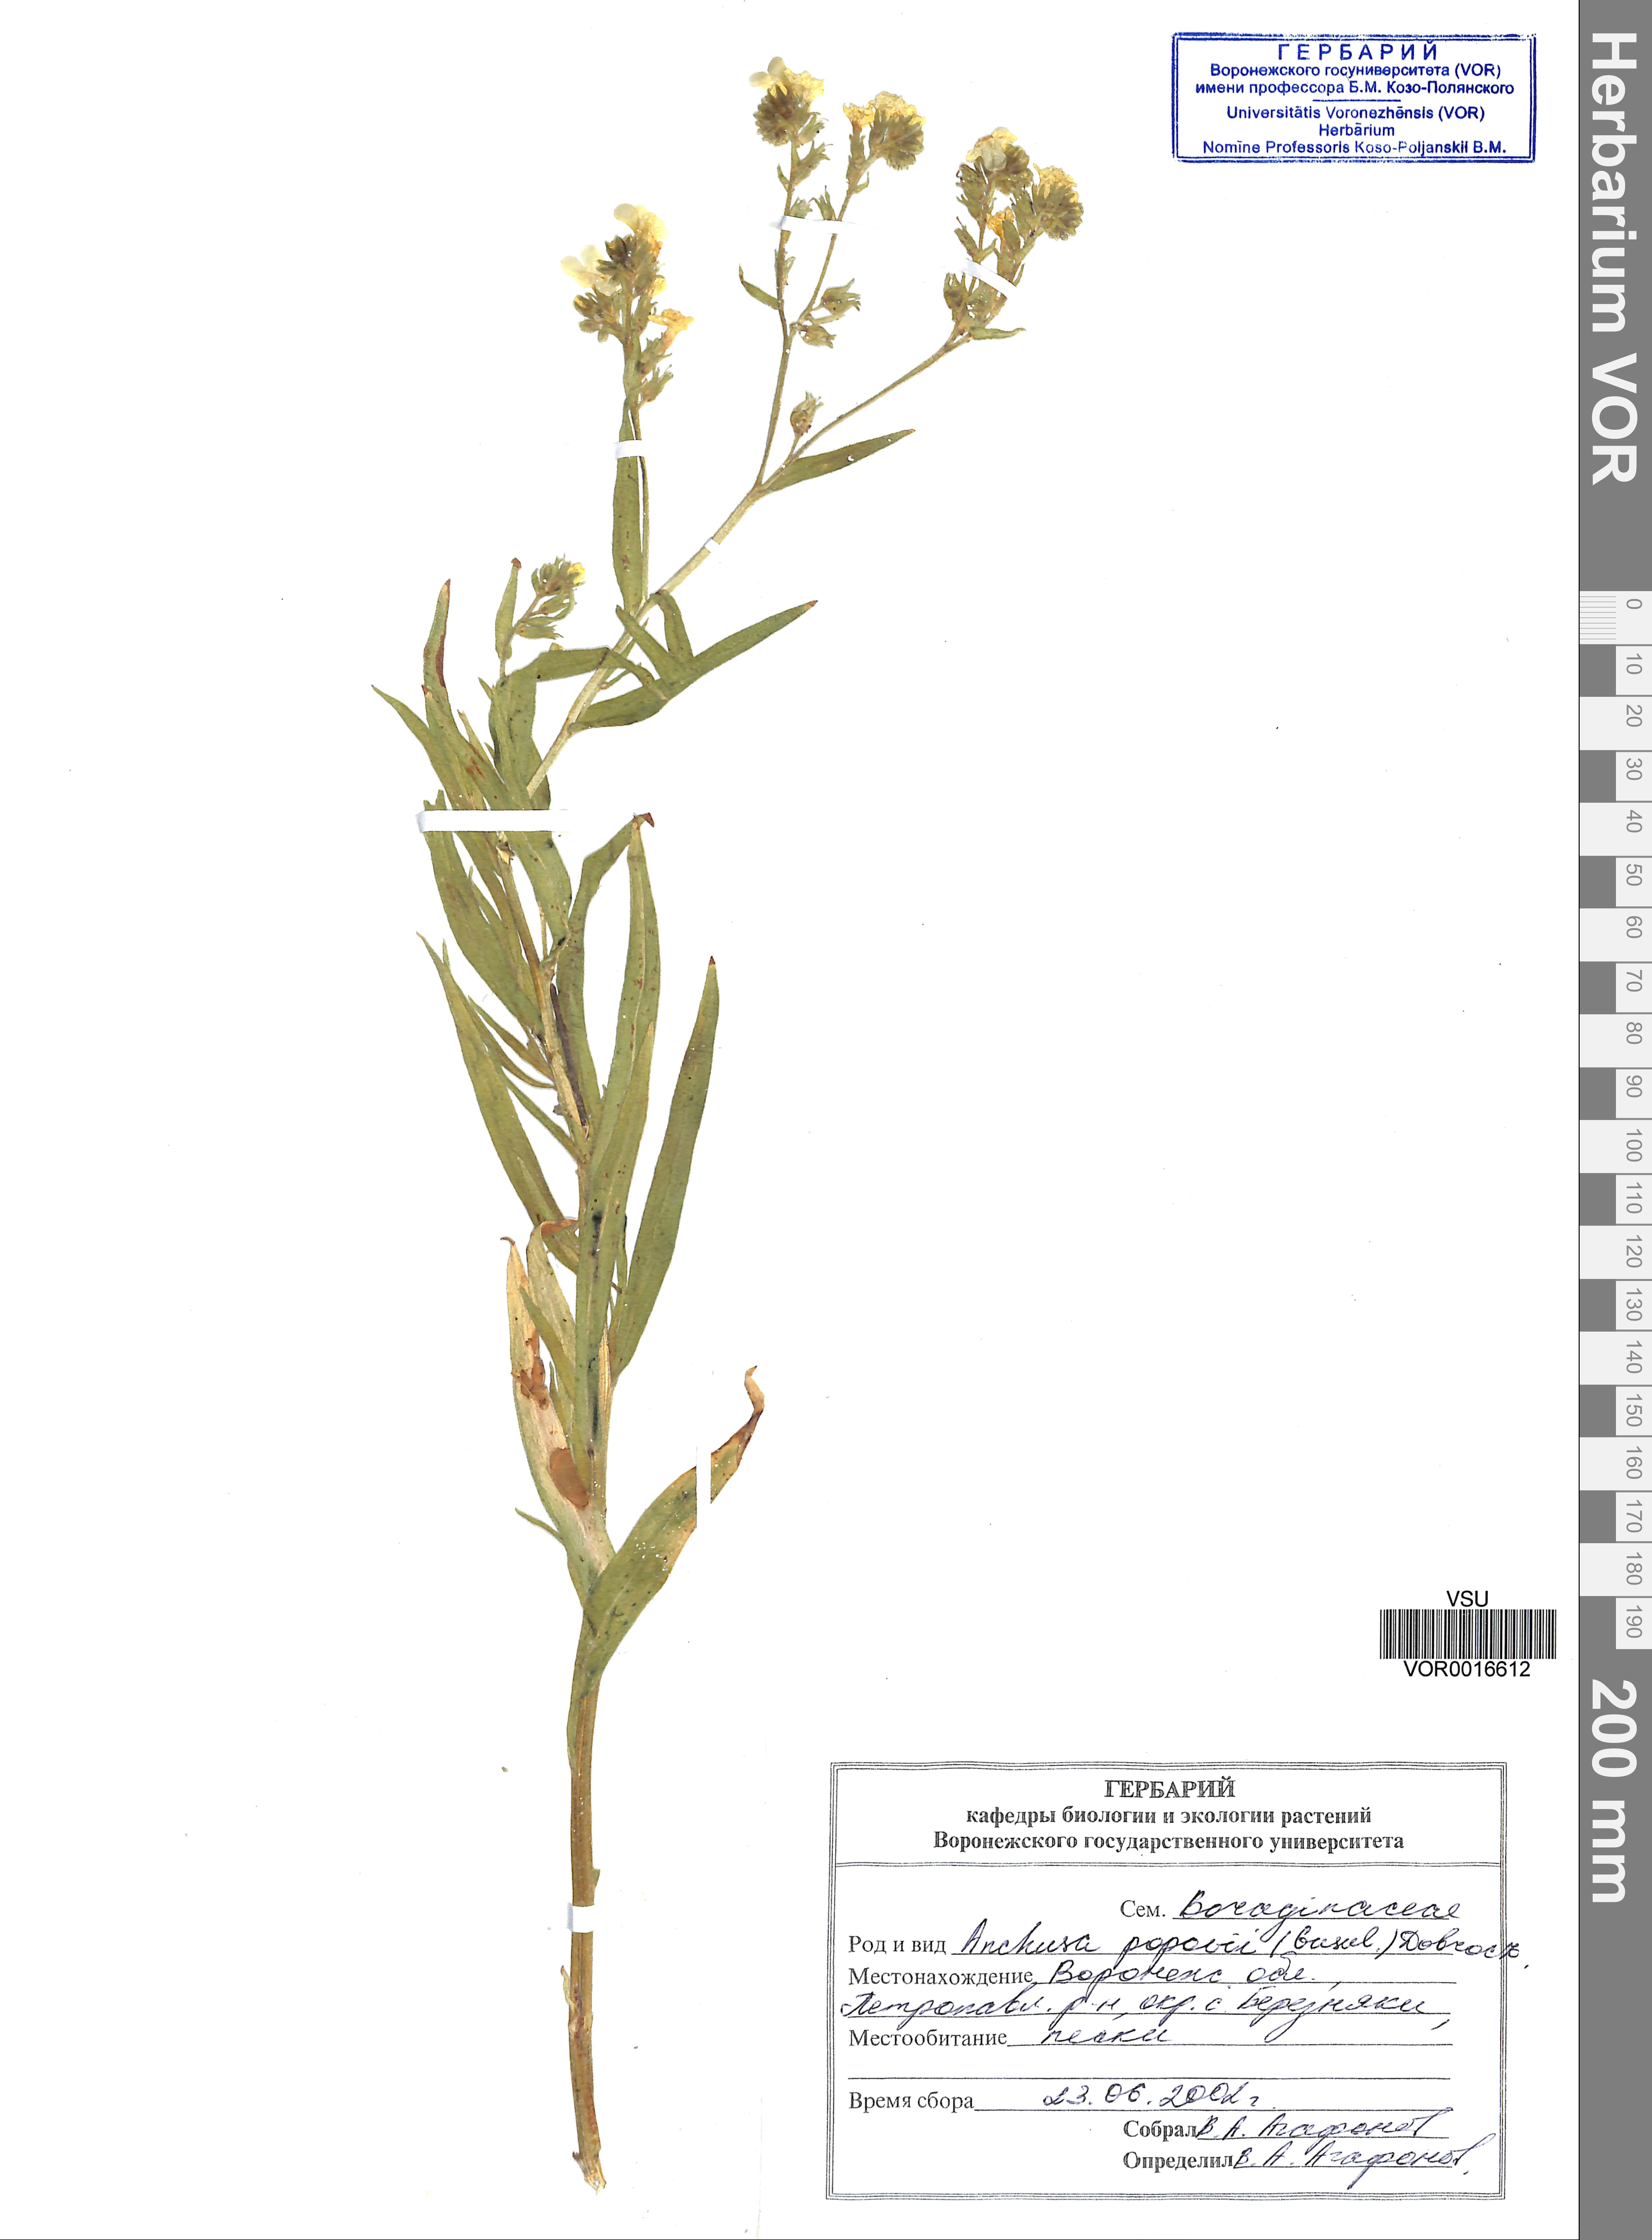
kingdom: Plantae
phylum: Tracheophyta
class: Magnoliopsida
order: Boraginales
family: Boraginaceae
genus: Anchusa
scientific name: Anchusa ochroleuca
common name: Yellow alkanet
